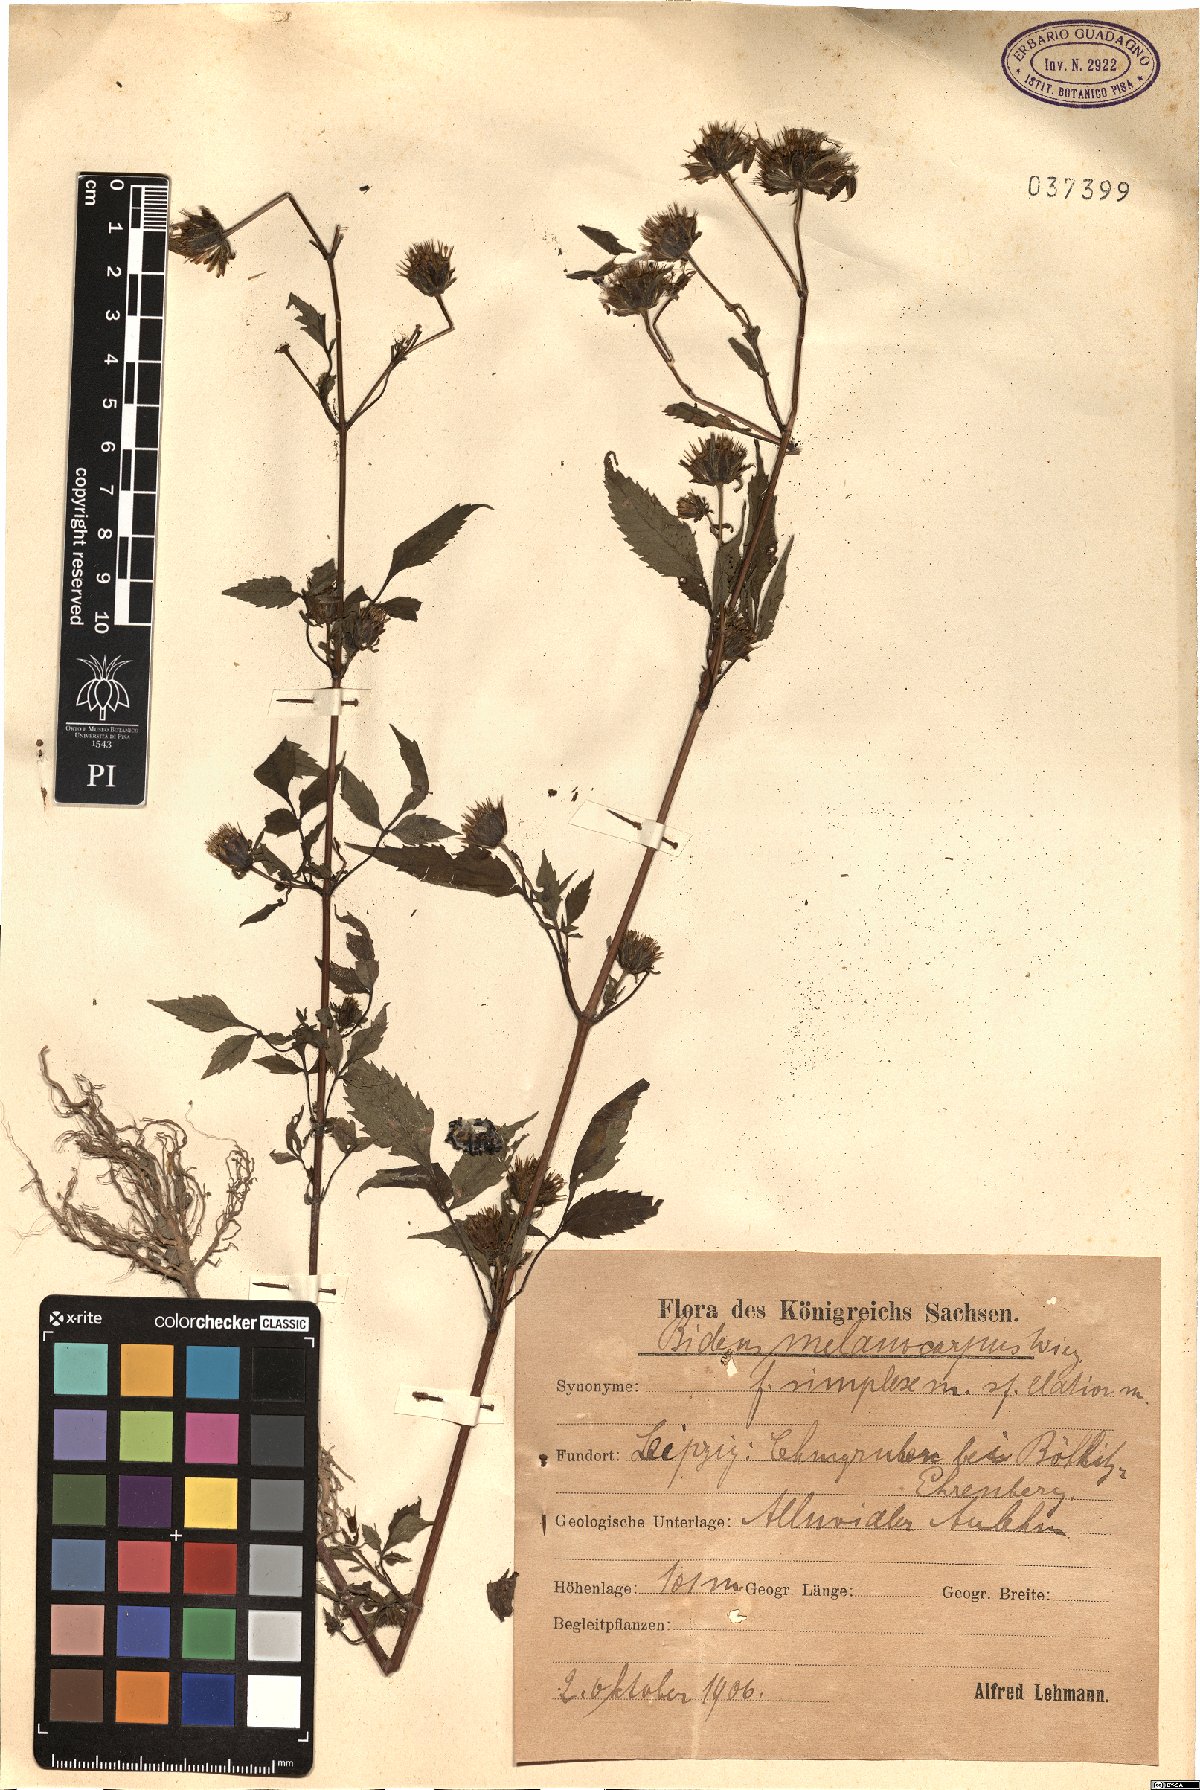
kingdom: Plantae
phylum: Tracheophyta
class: Magnoliopsida
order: Asterales
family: Asteraceae
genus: Bidens
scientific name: Bidens frondosa
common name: Beggarticks
